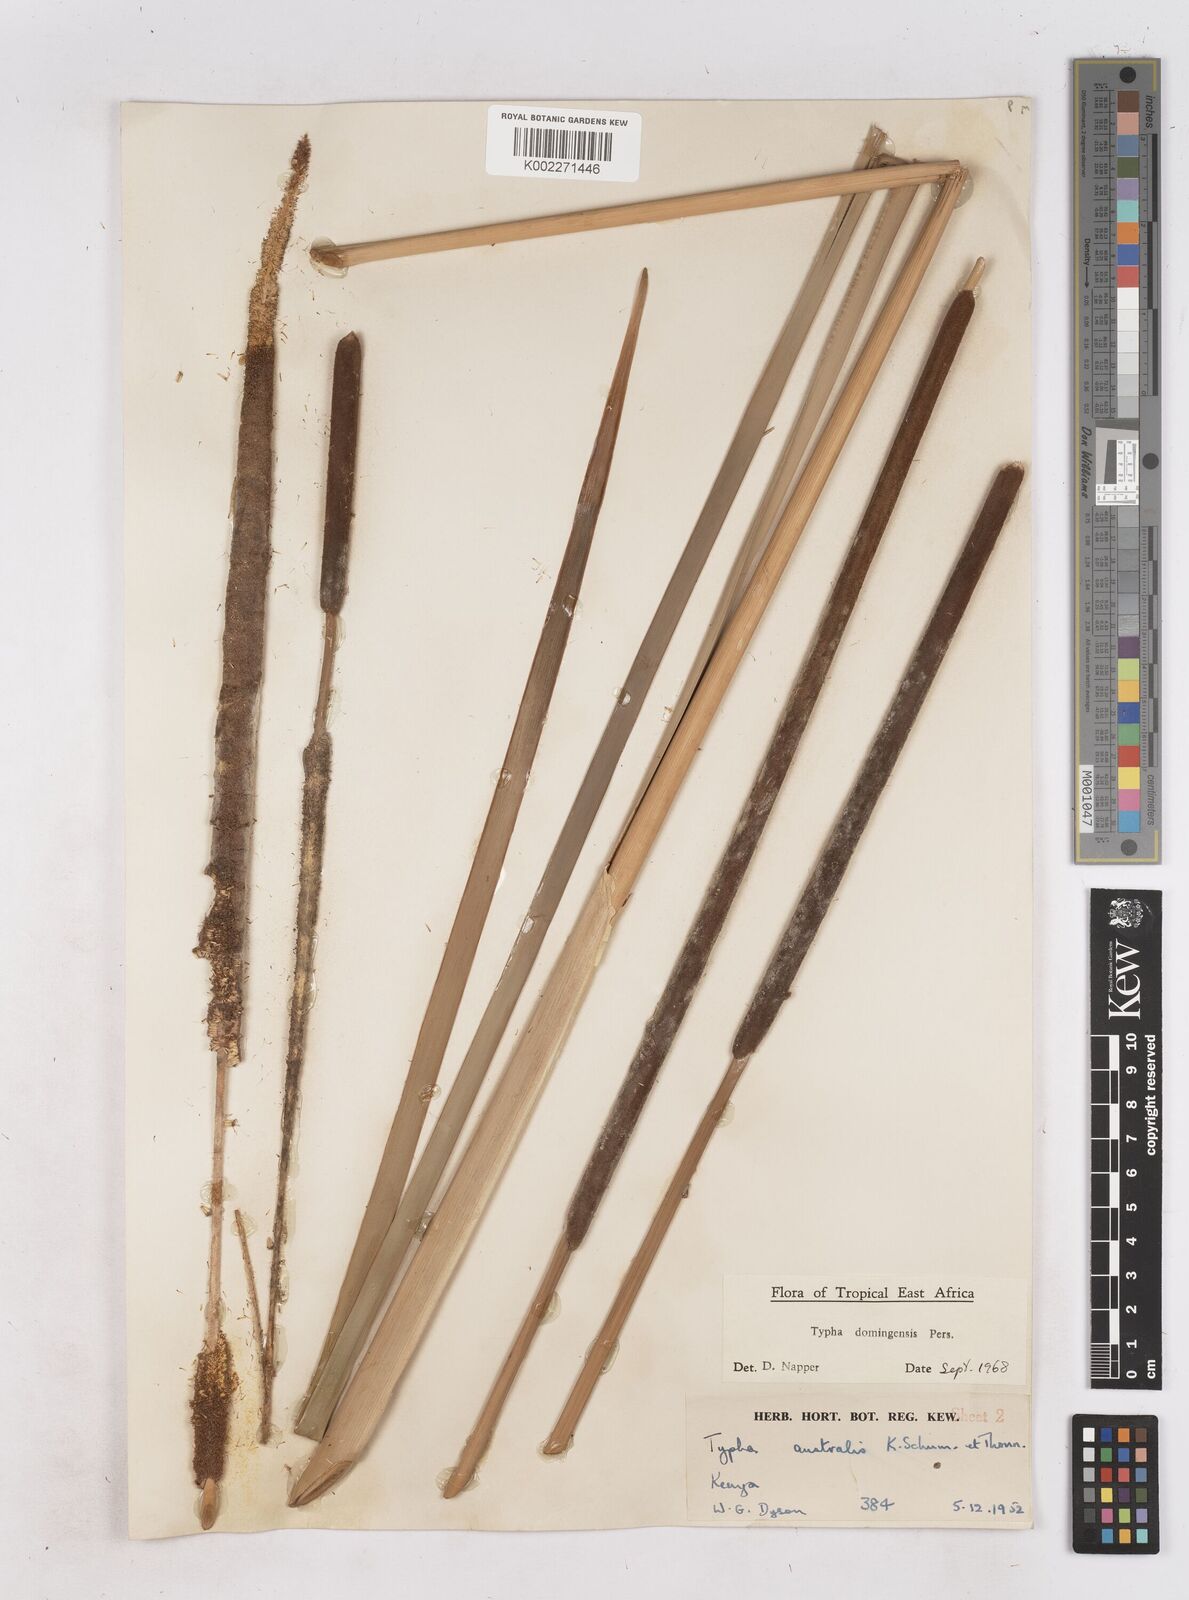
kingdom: Plantae
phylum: Tracheophyta
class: Liliopsida
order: Poales
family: Typhaceae
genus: Typha
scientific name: Typha domingensis
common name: Southern cattail
